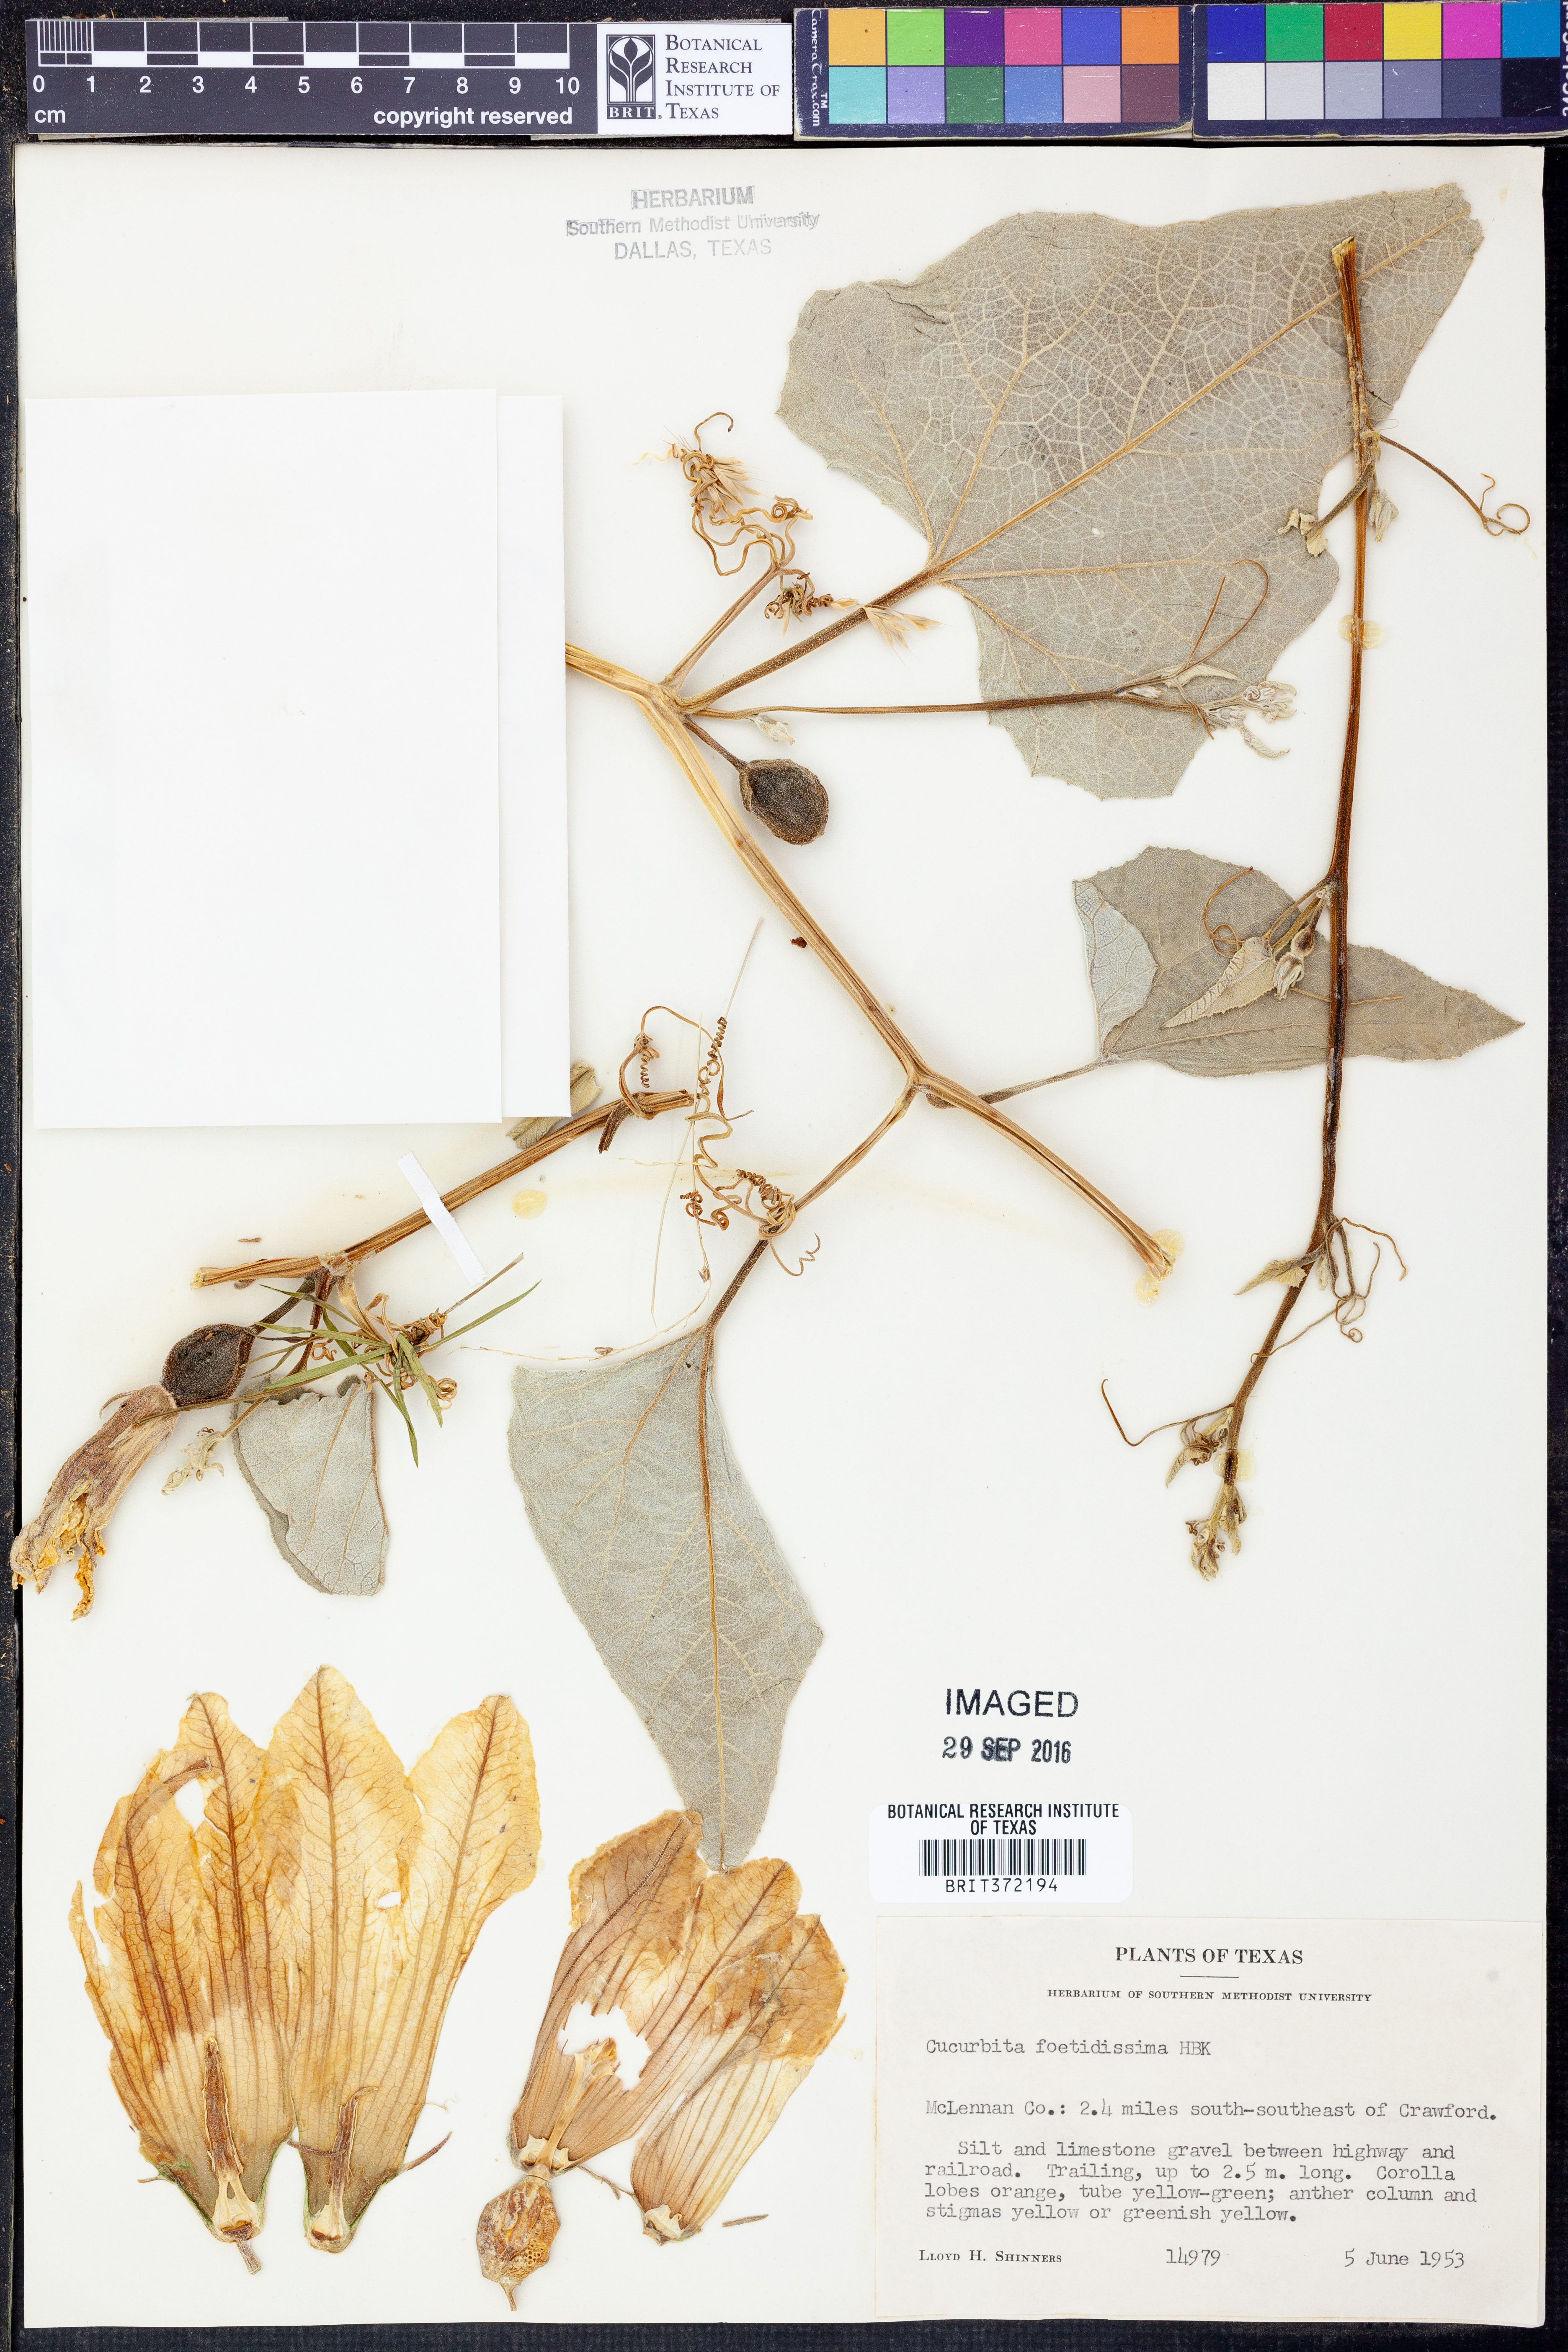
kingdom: Plantae
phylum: Tracheophyta
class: Magnoliopsida
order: Cucurbitales
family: Cucurbitaceae
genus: Cucurbita
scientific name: Cucurbita foetidissima
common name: Buffalo gourd
